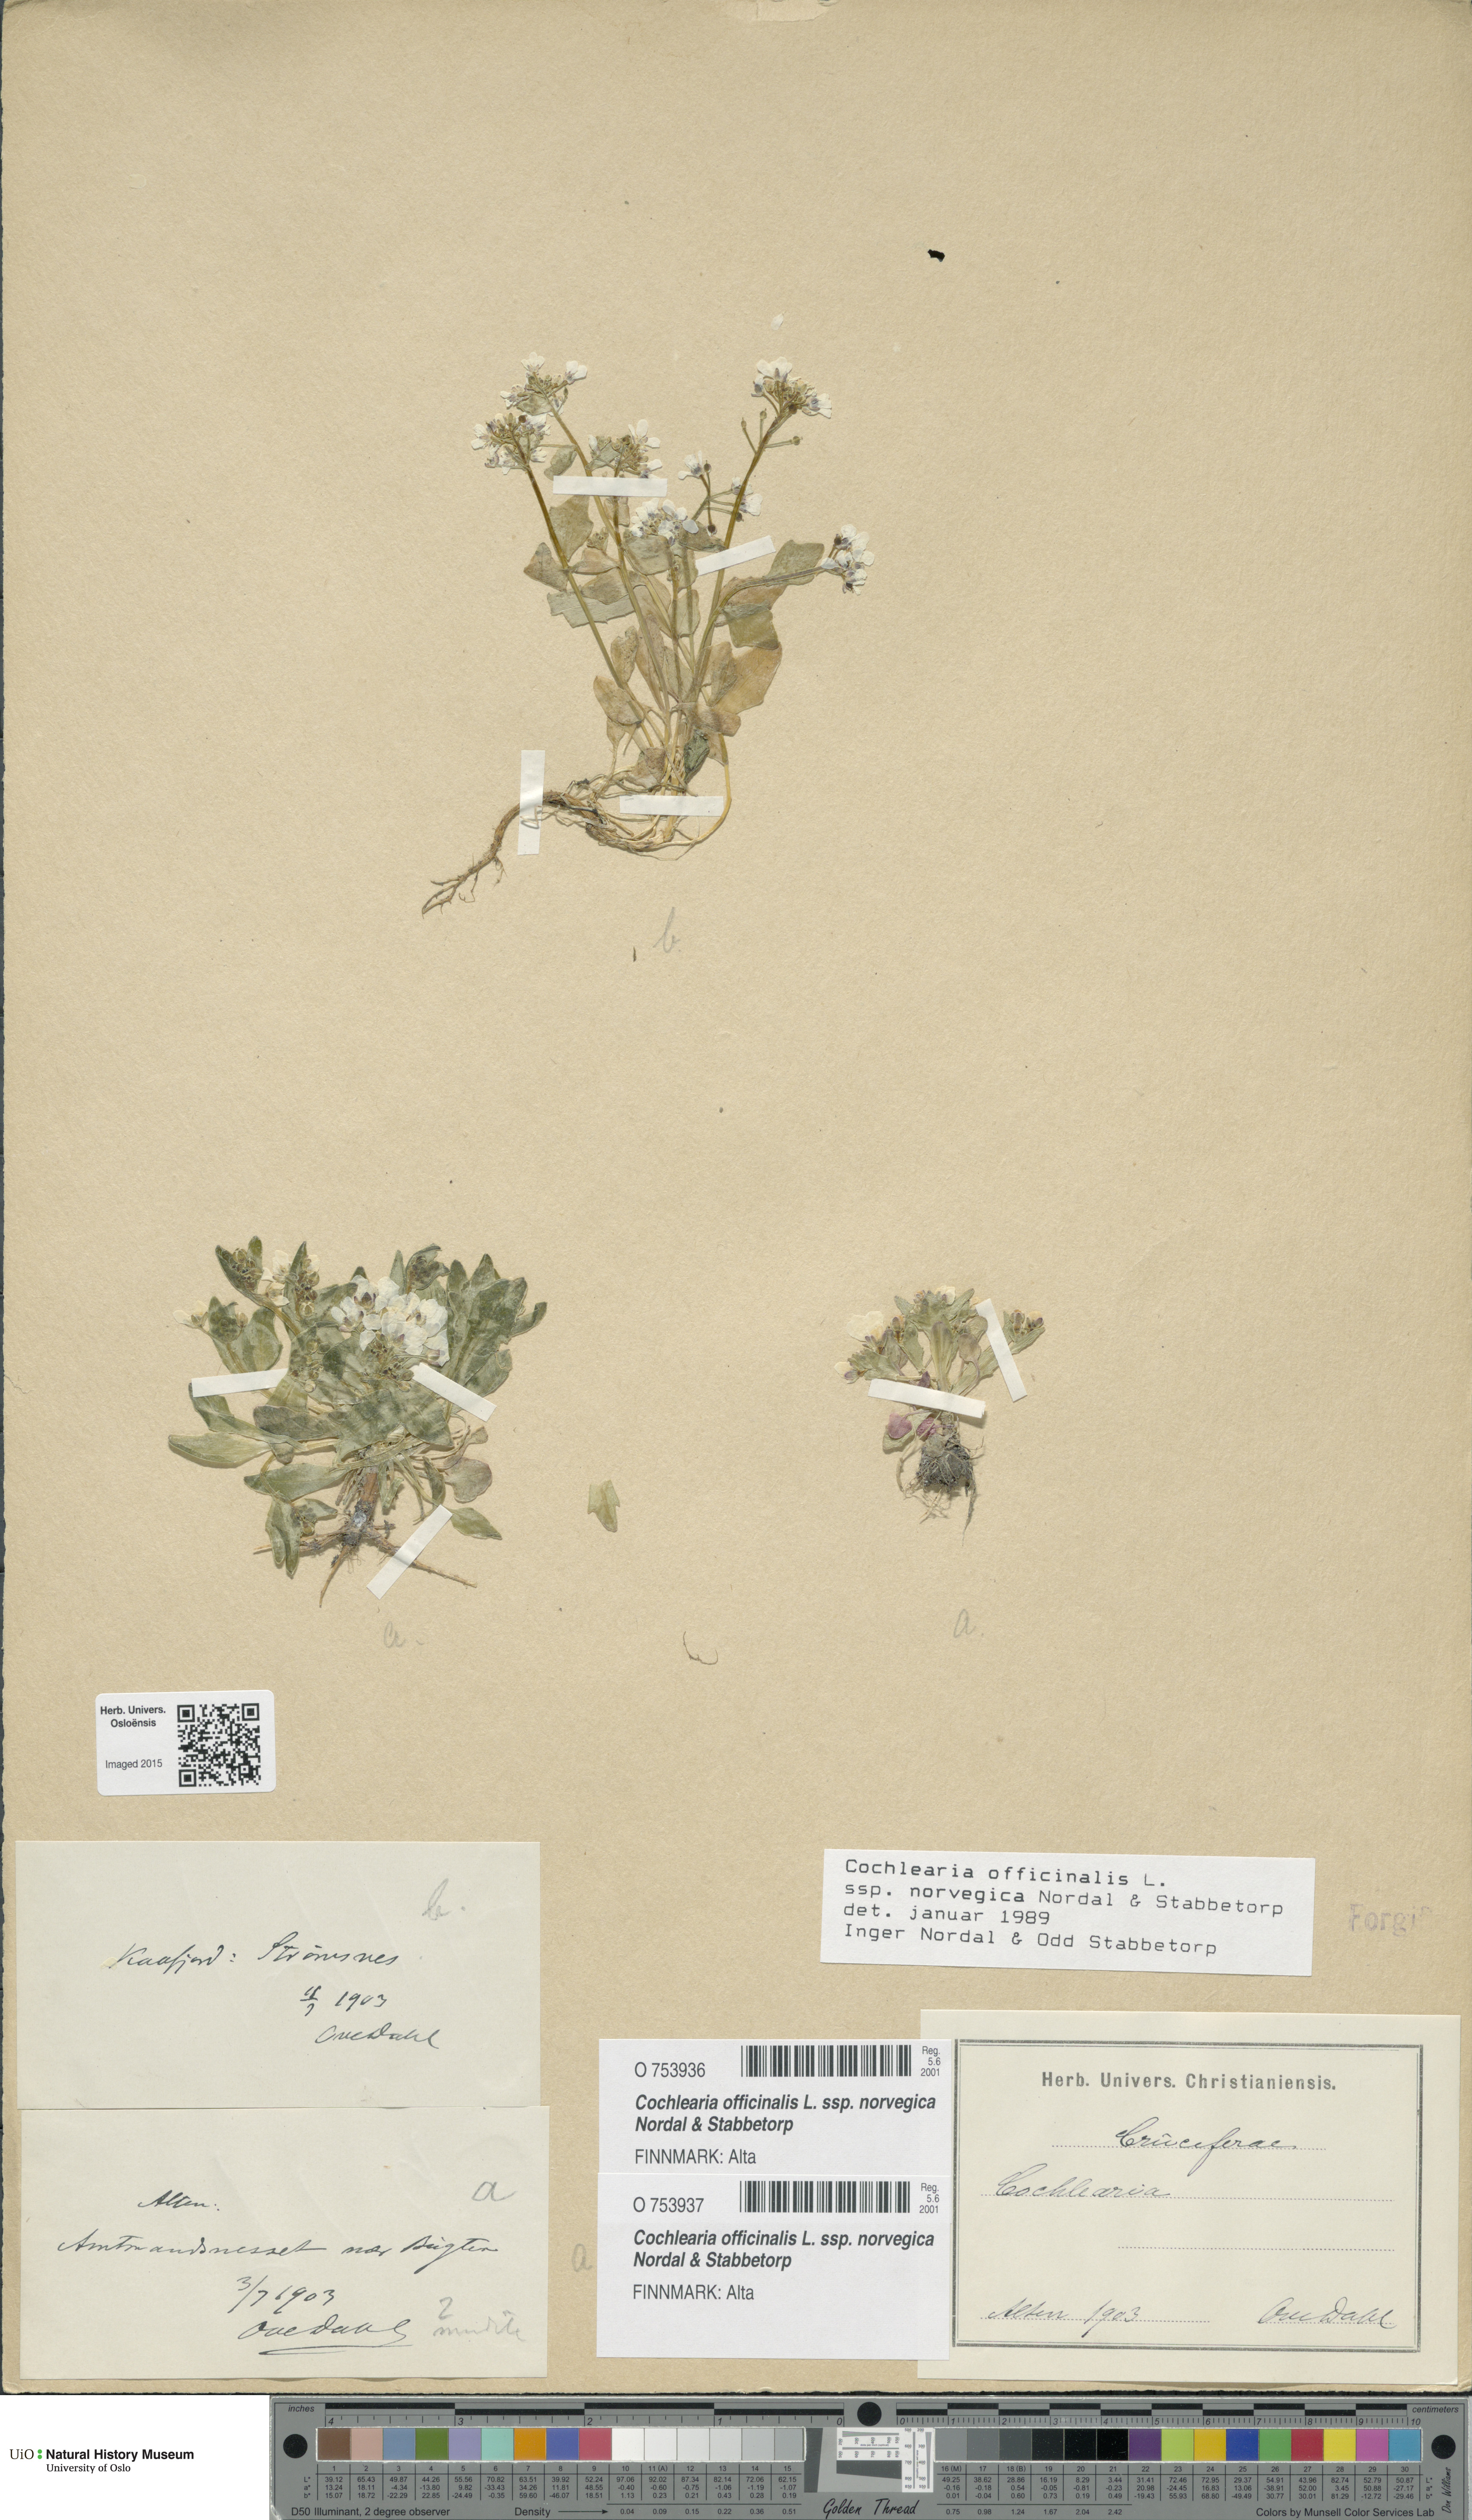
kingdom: Plantae
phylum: Tracheophyta
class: Magnoliopsida
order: Brassicales
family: Brassicaceae
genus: Cochlearia
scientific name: Cochlearia officinalis
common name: Scurvy-grass
